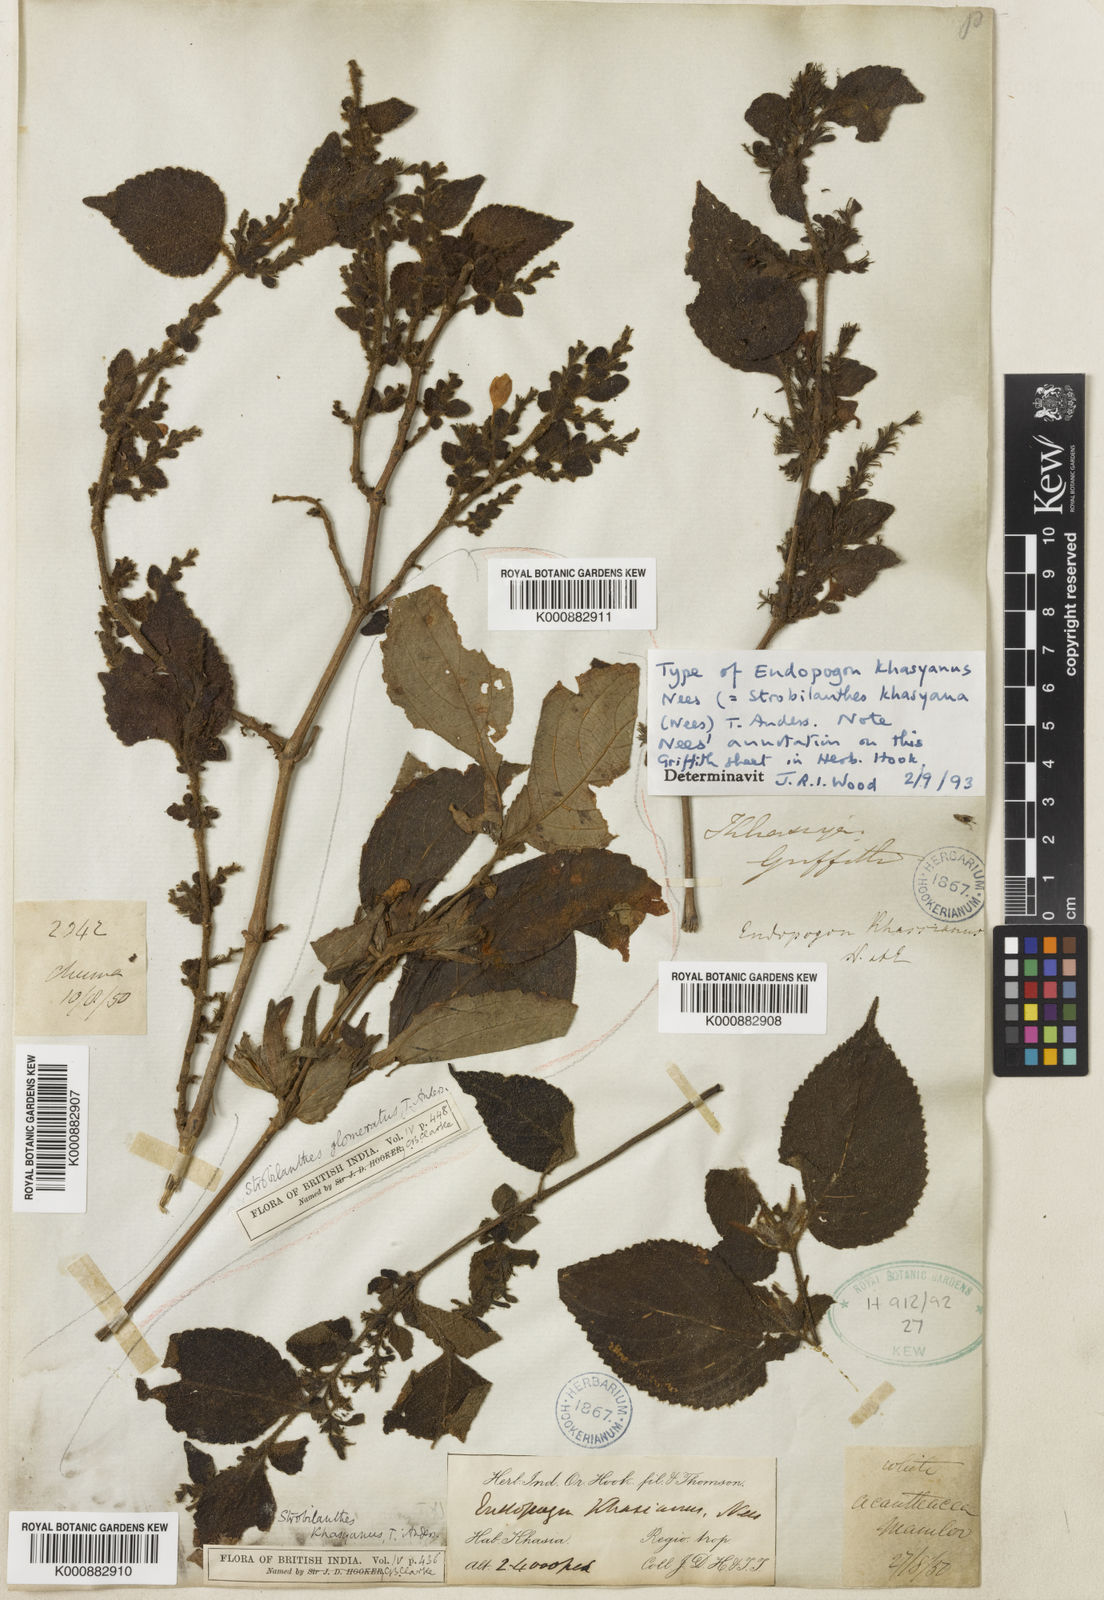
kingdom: Plantae
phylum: Tracheophyta
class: Magnoliopsida
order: Lamiales
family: Acanthaceae
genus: Strobilanthes
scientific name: Strobilanthes khasyana
